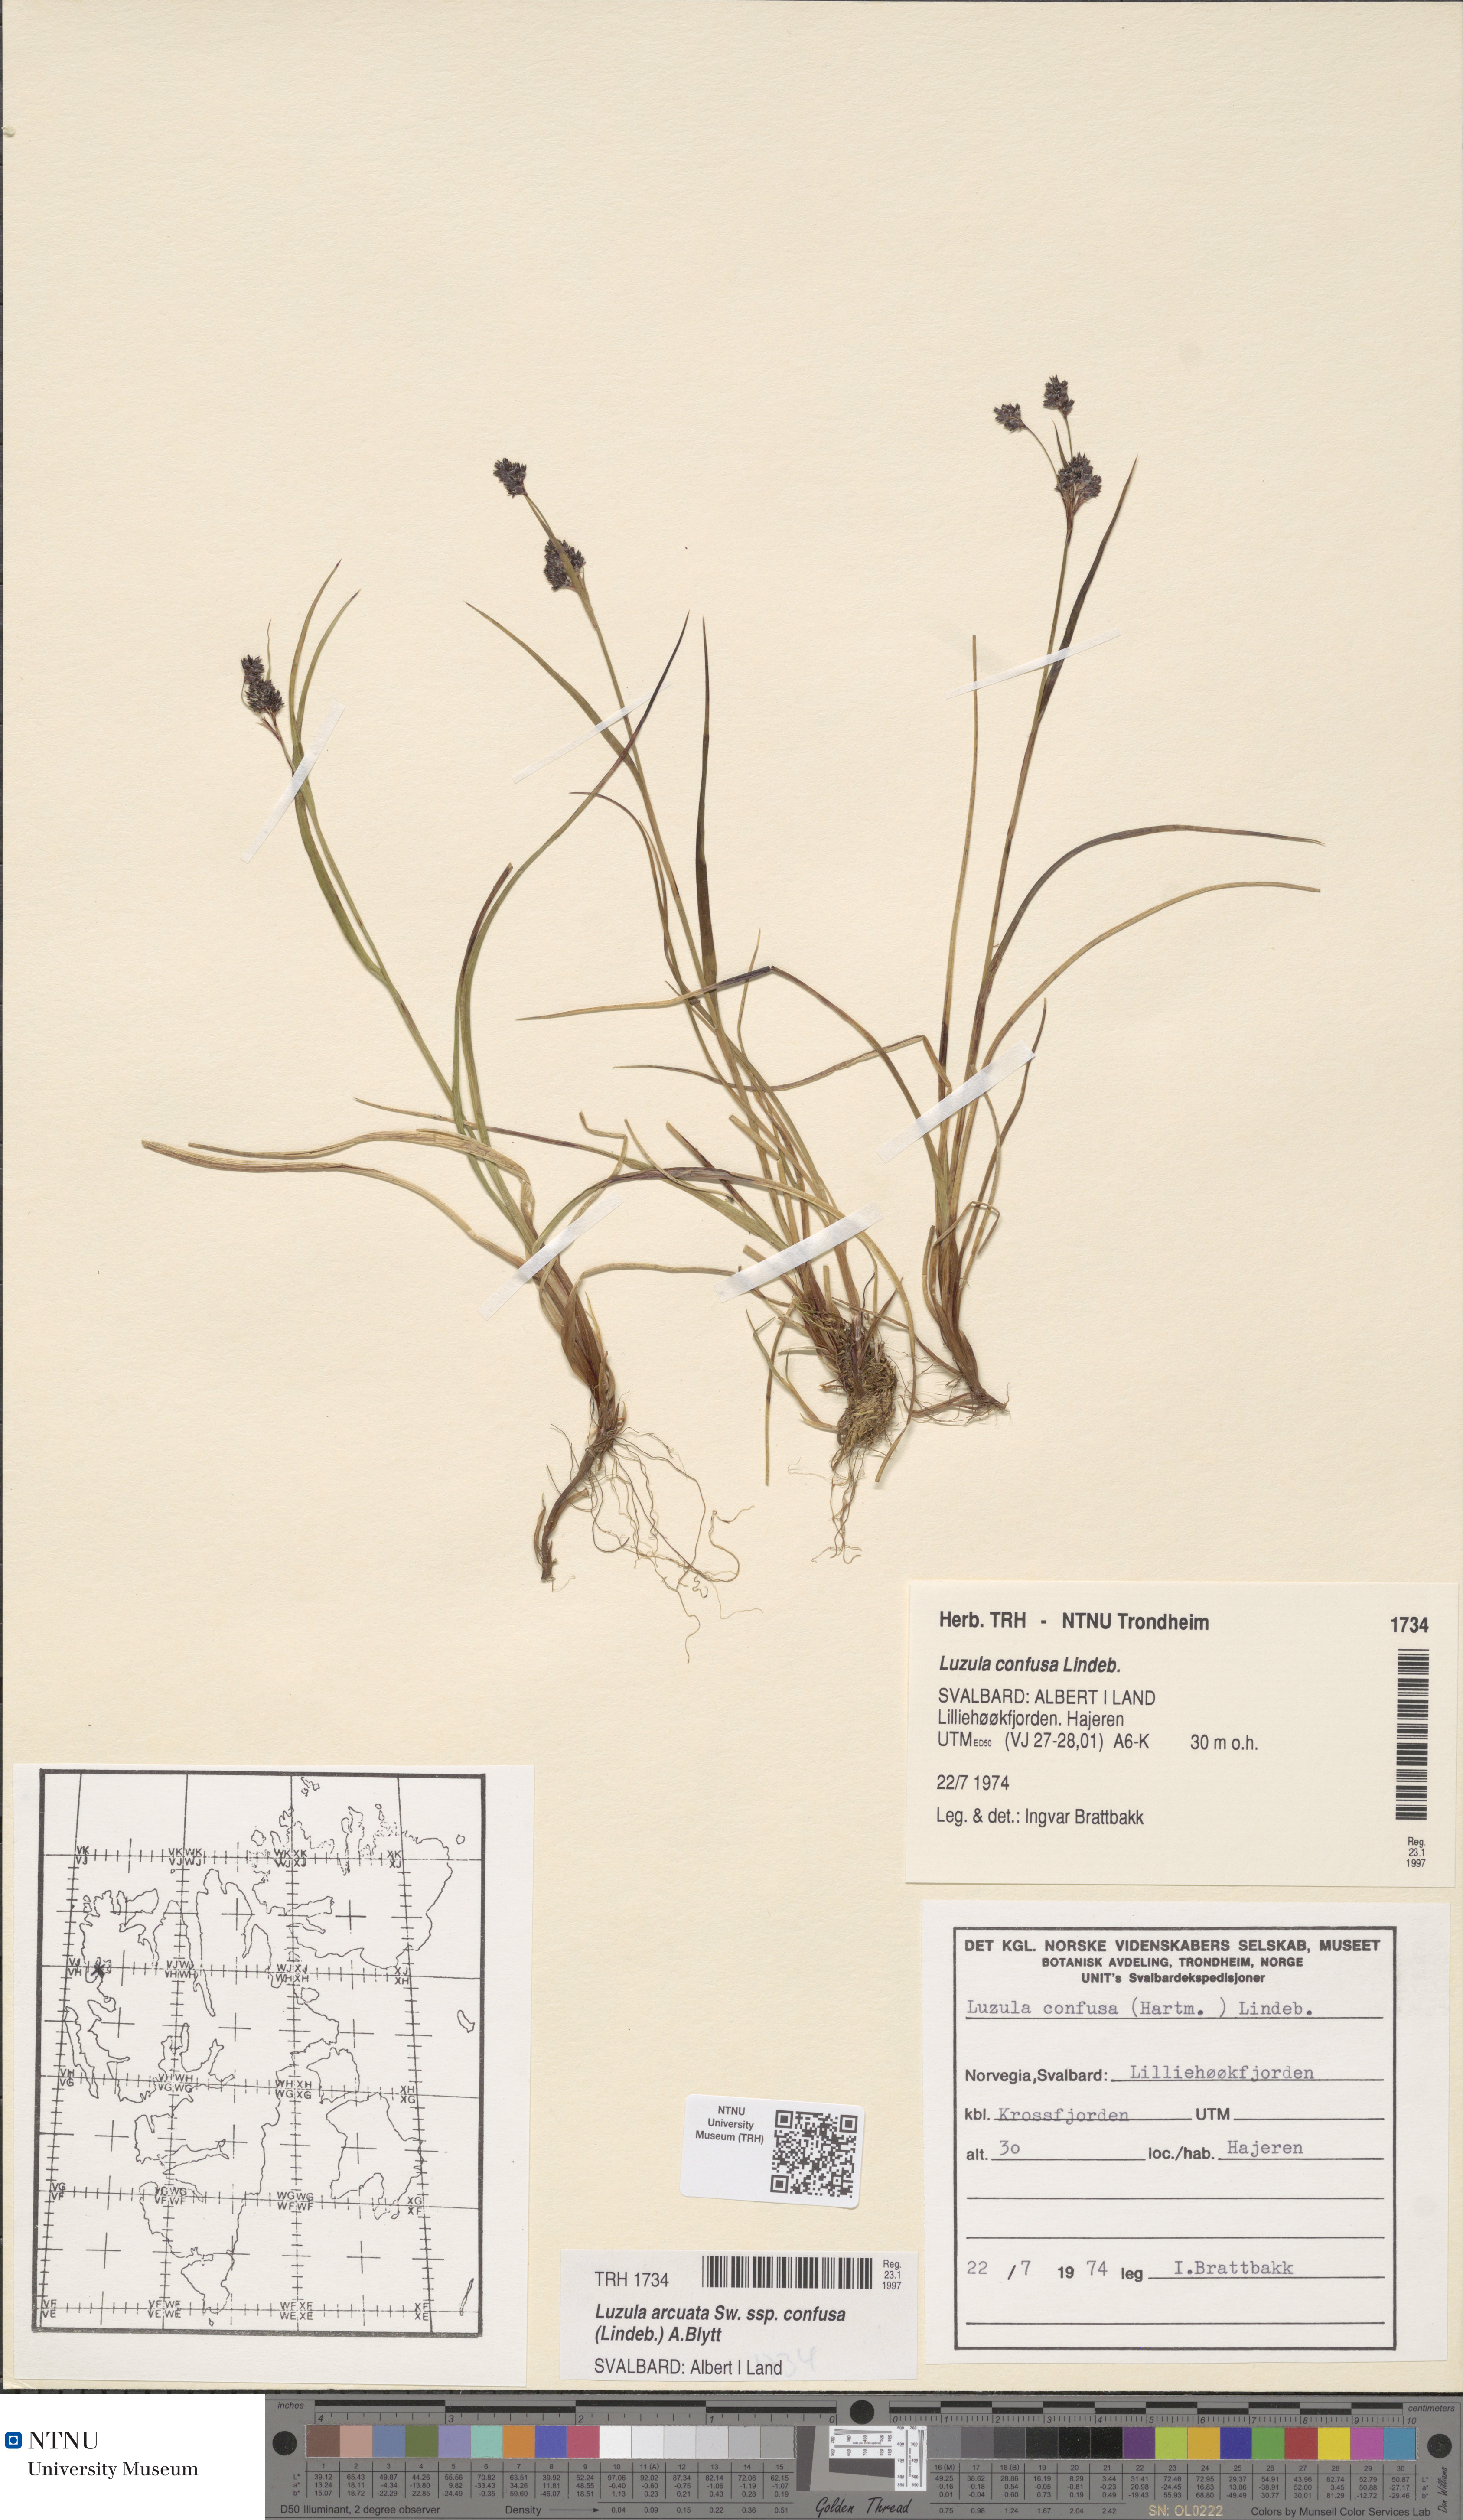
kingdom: Plantae
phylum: Tracheophyta
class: Liliopsida
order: Poales
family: Juncaceae
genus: Luzula
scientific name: Luzula confusa
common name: Northern wood rush
